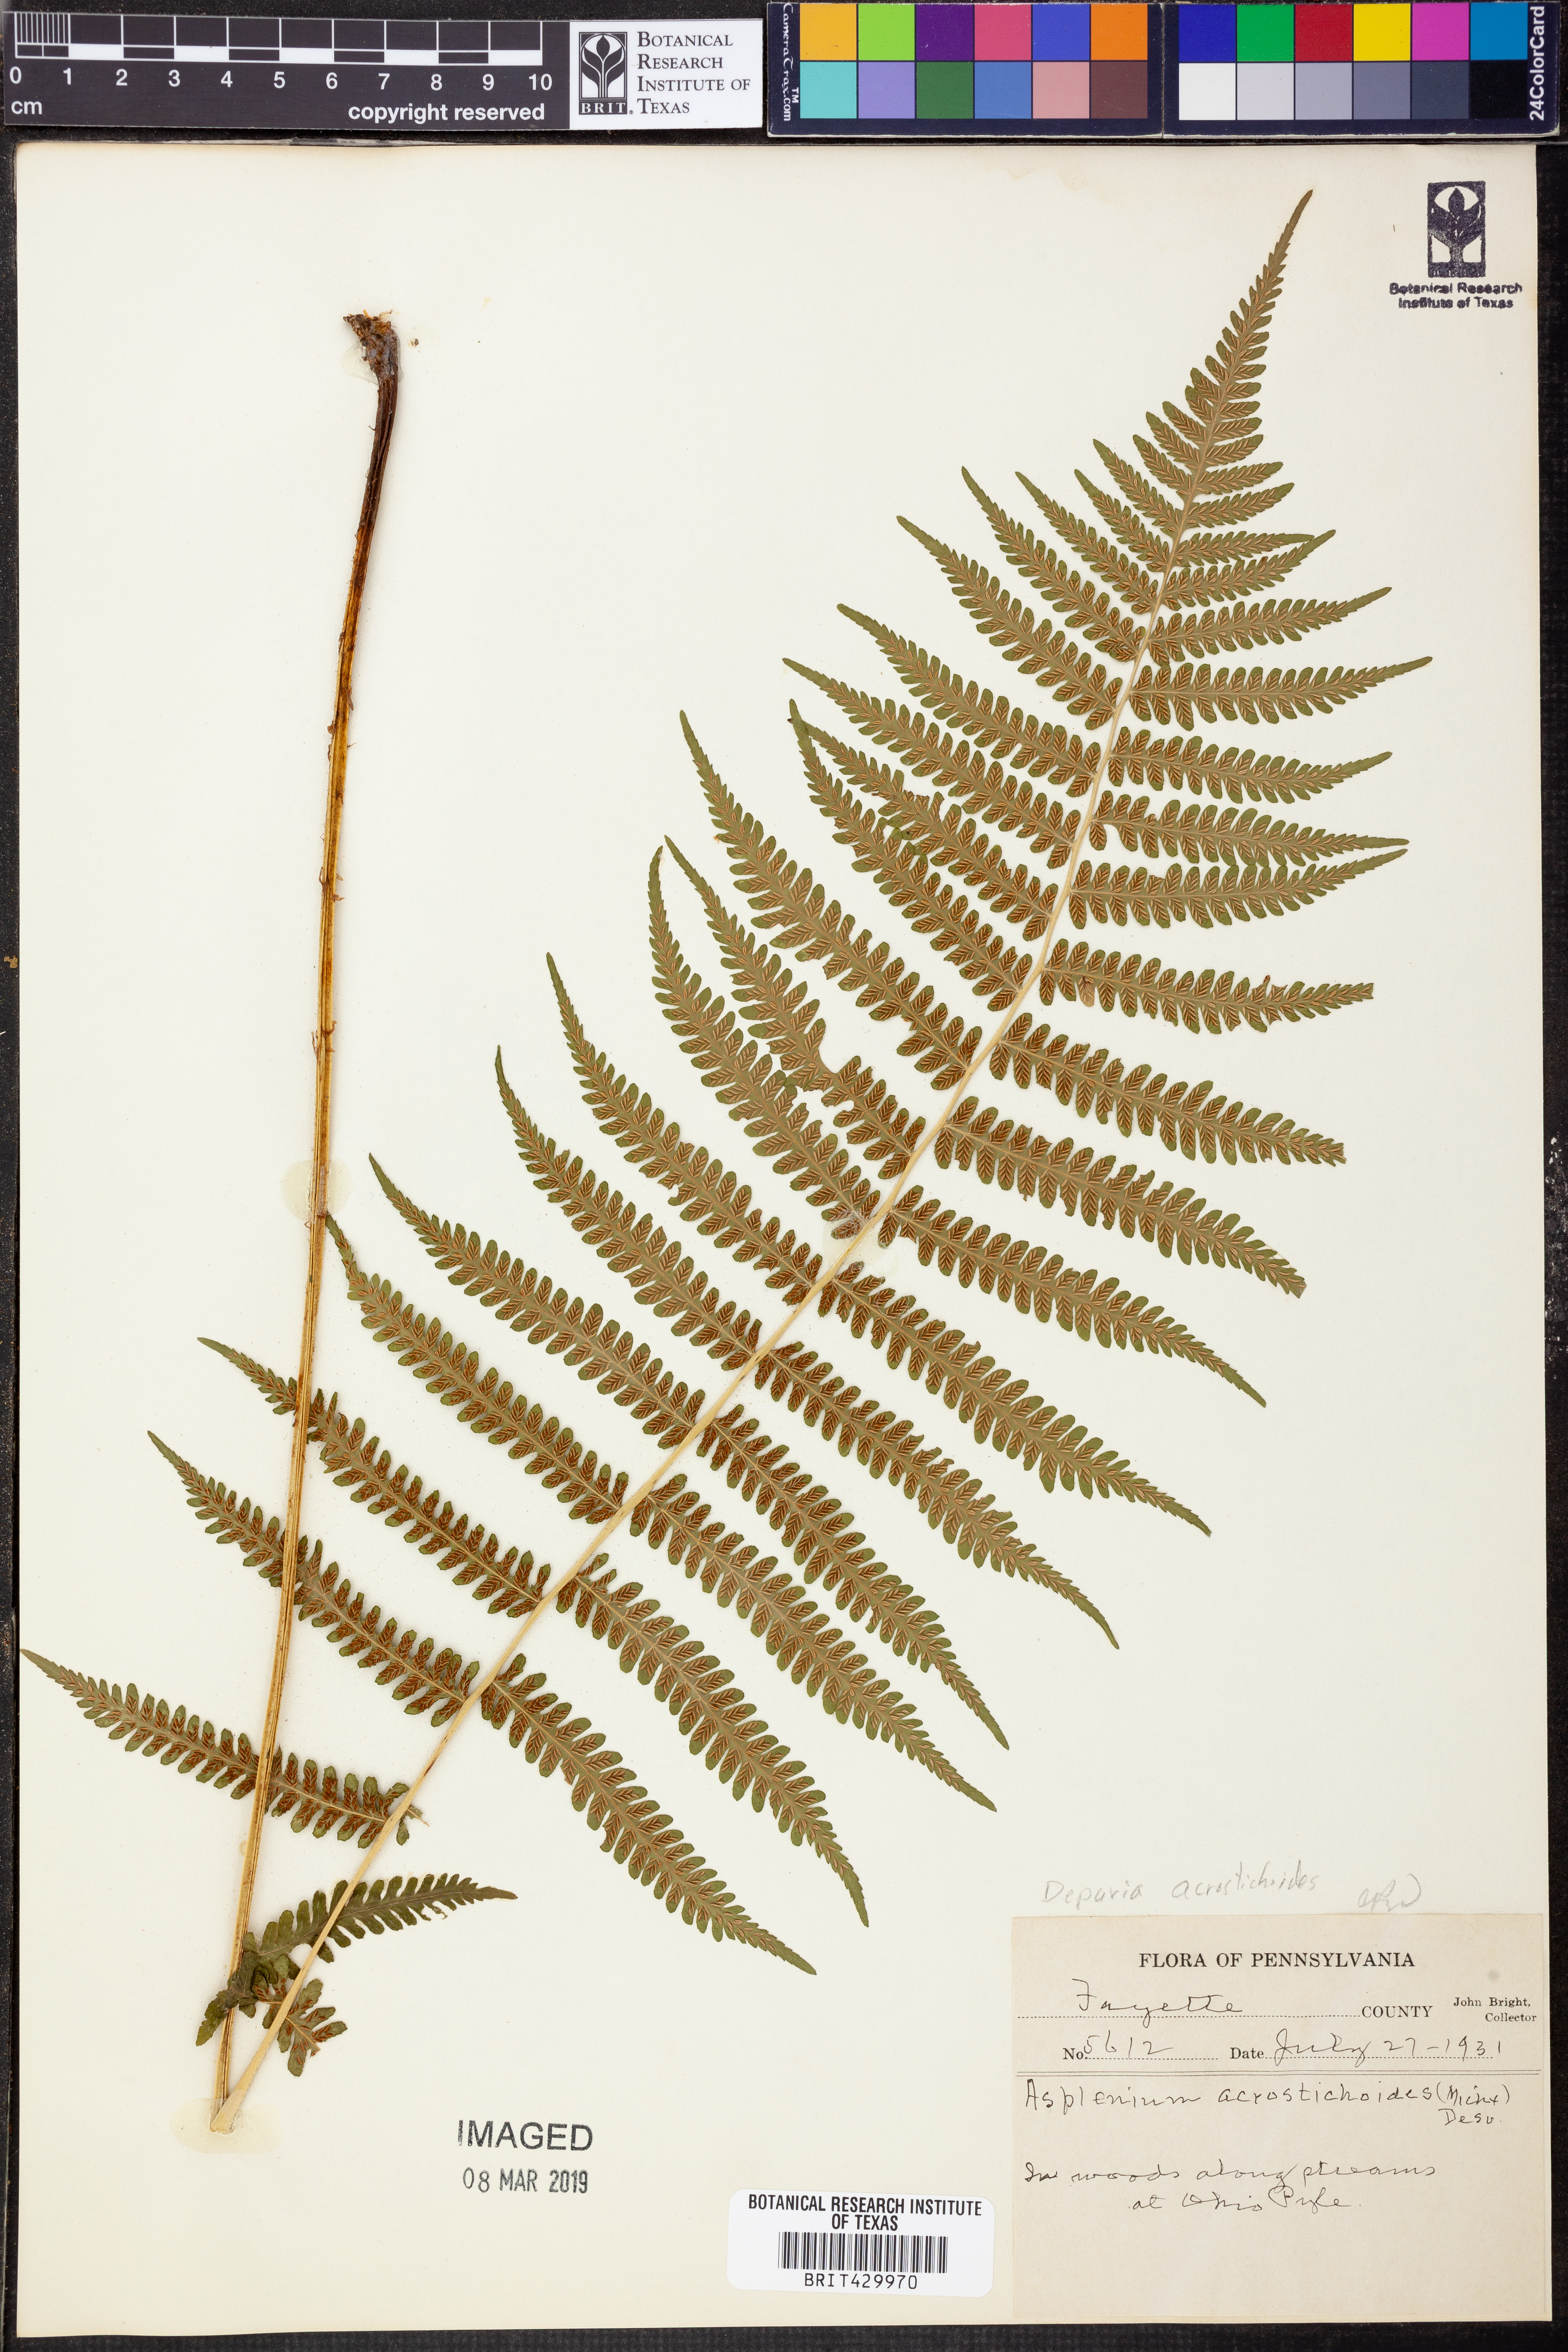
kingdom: Plantae
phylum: Tracheophyta
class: Polypodiopsida
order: Polypodiales
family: Athyriaceae
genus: Deparia
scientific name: Deparia acrostichoides
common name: Silver false spleenwort
